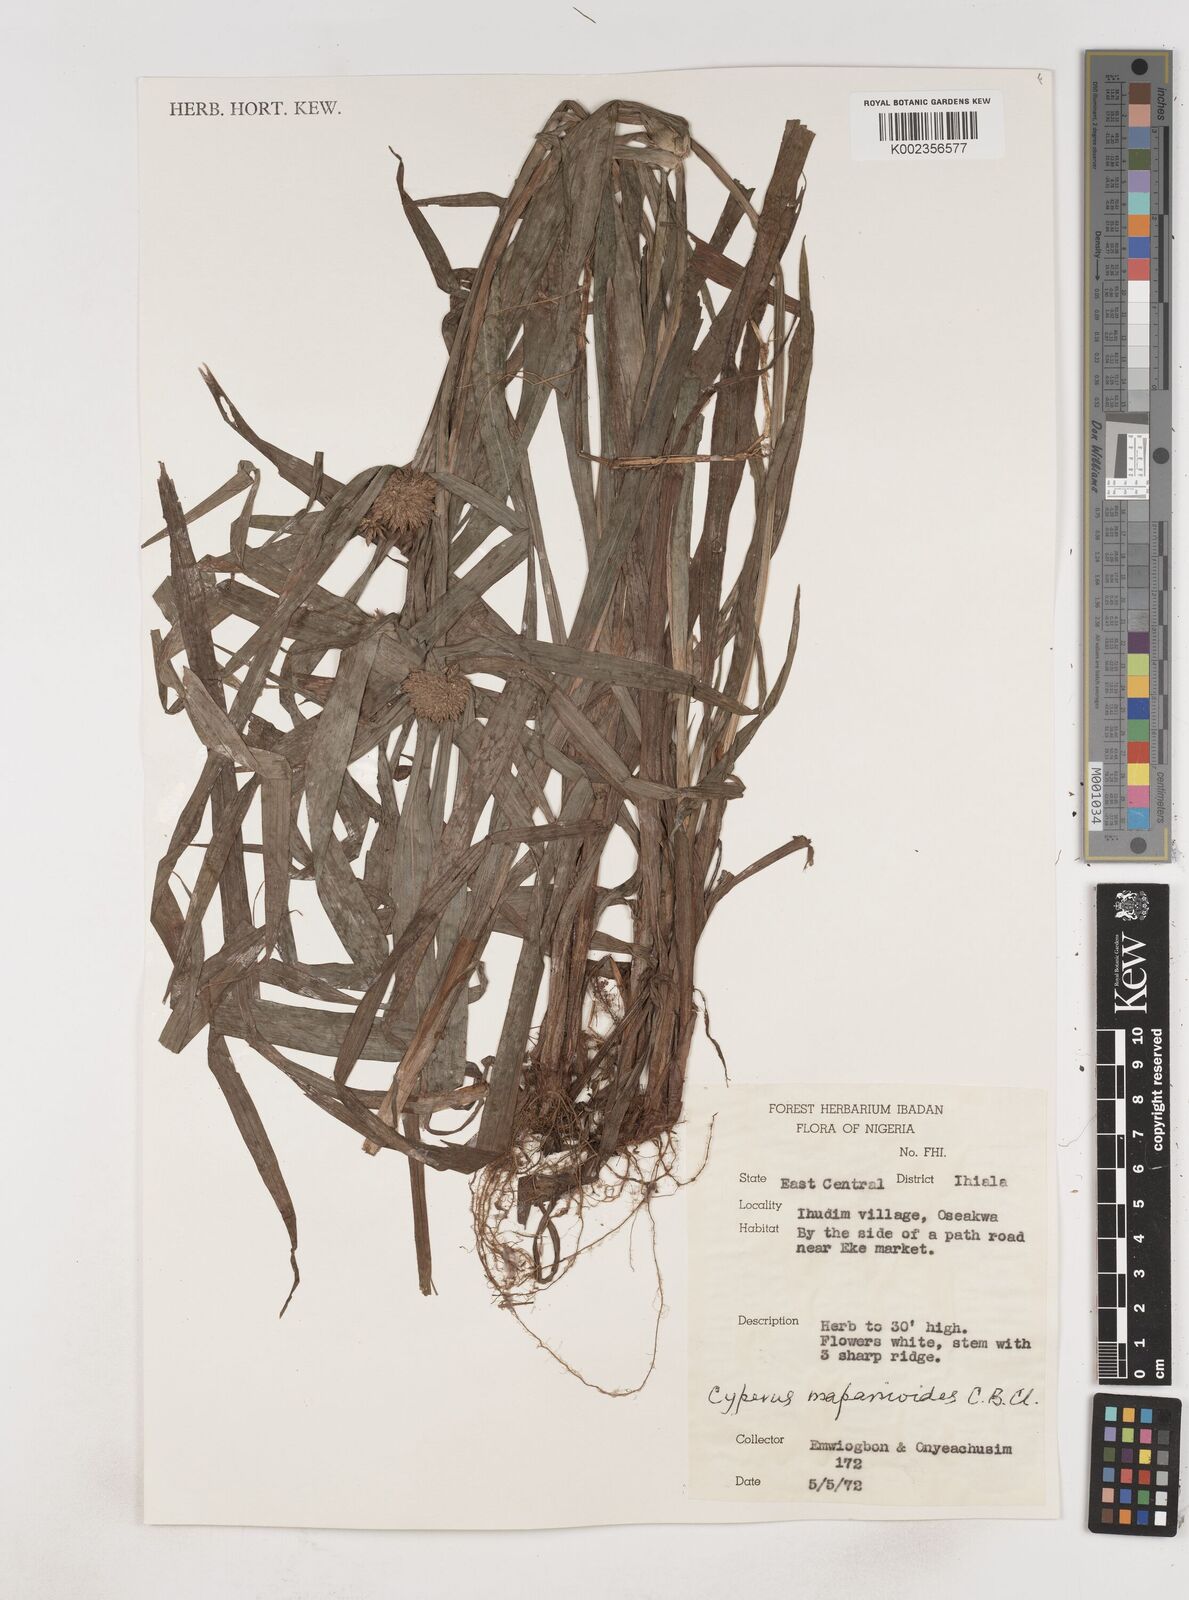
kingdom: Plantae
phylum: Tracheophyta
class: Liliopsida
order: Poales
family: Cyperaceae
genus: Cyperus
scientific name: Cyperus mapanioides
